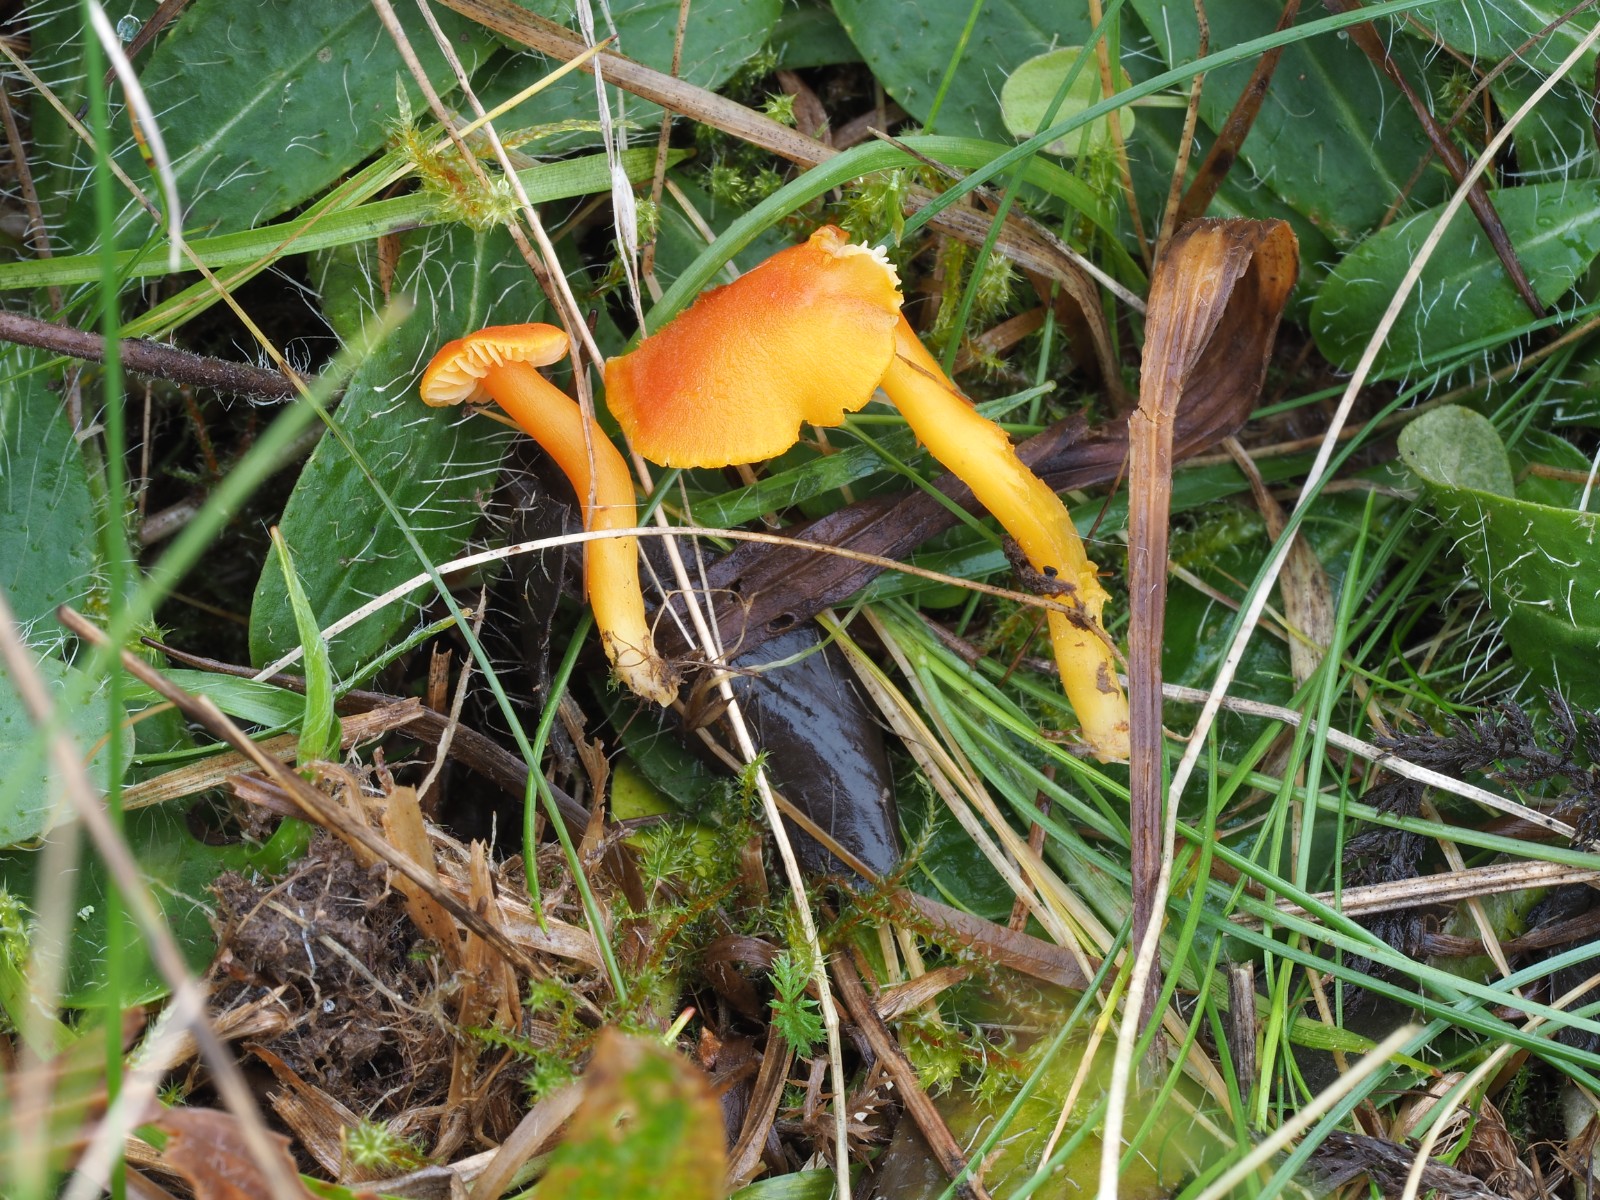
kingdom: Fungi
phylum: Basidiomycota
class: Agaricomycetes
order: Agaricales
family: Hygrophoraceae
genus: Hygrocybe
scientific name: Hygrocybe miniata
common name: mønje-vokshat
